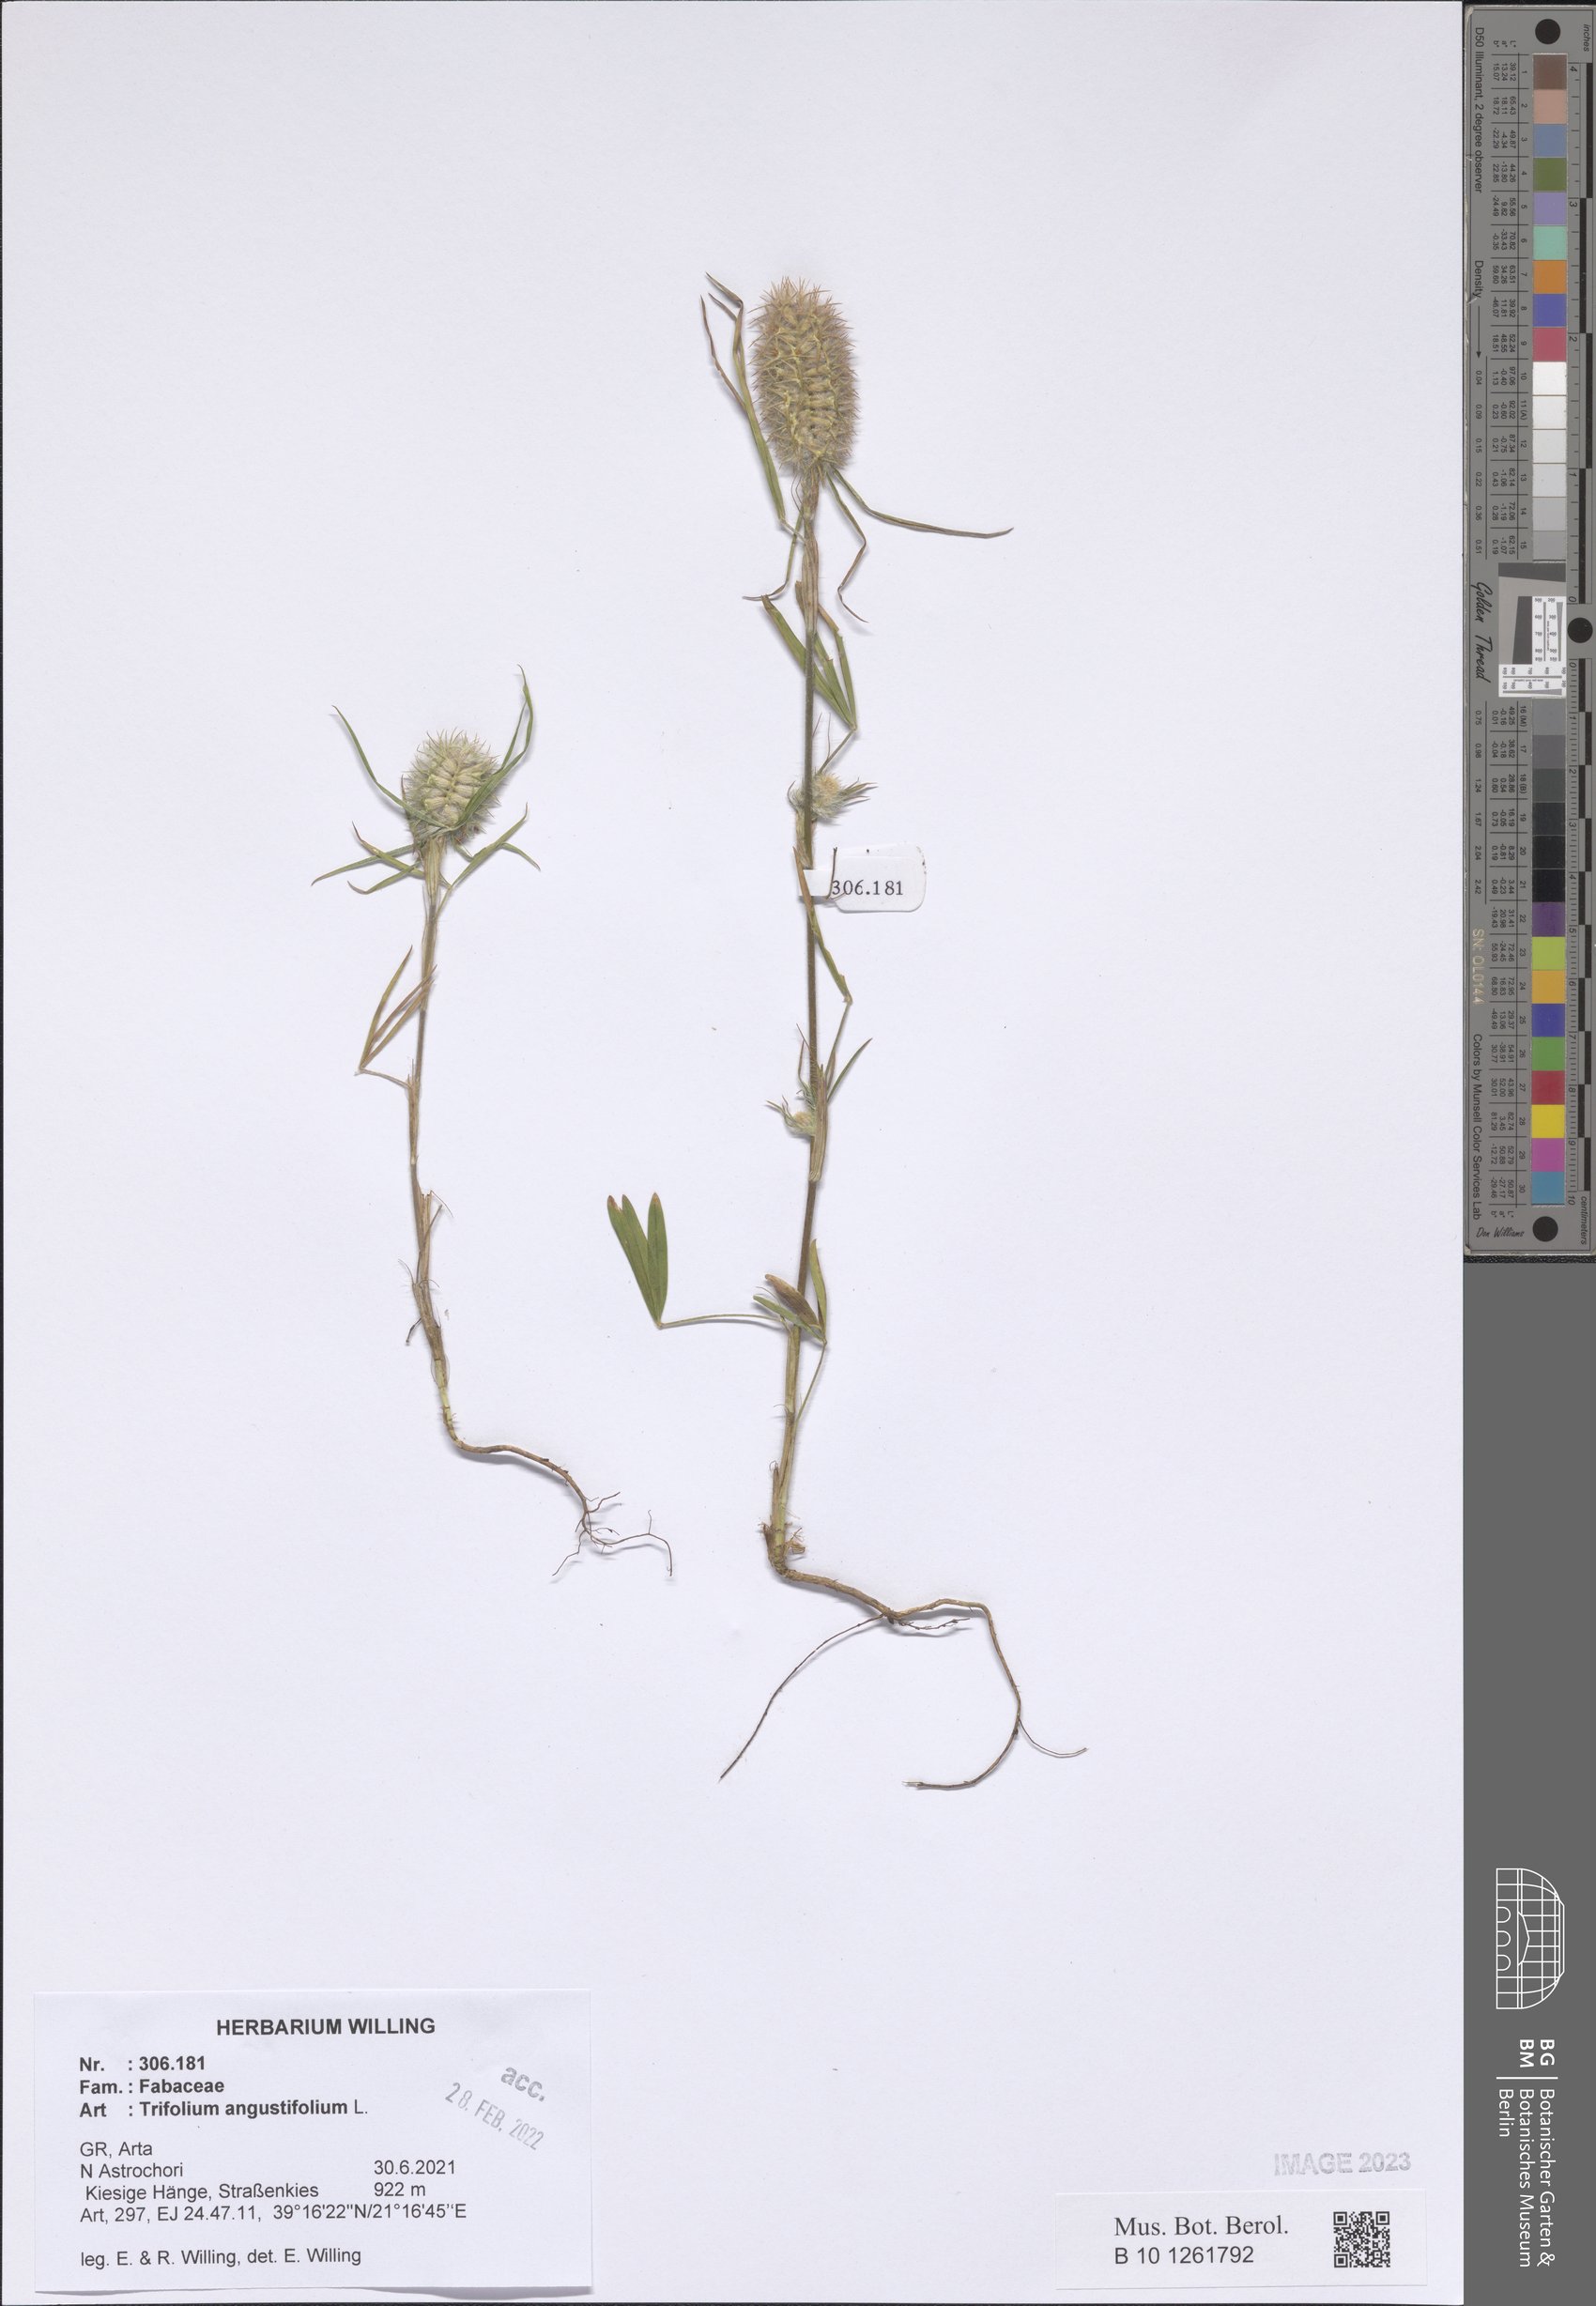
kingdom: Plantae
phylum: Tracheophyta
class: Magnoliopsida
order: Fabales
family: Fabaceae
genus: Trifolium
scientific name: Trifolium angustifolium
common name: Narrow clover
